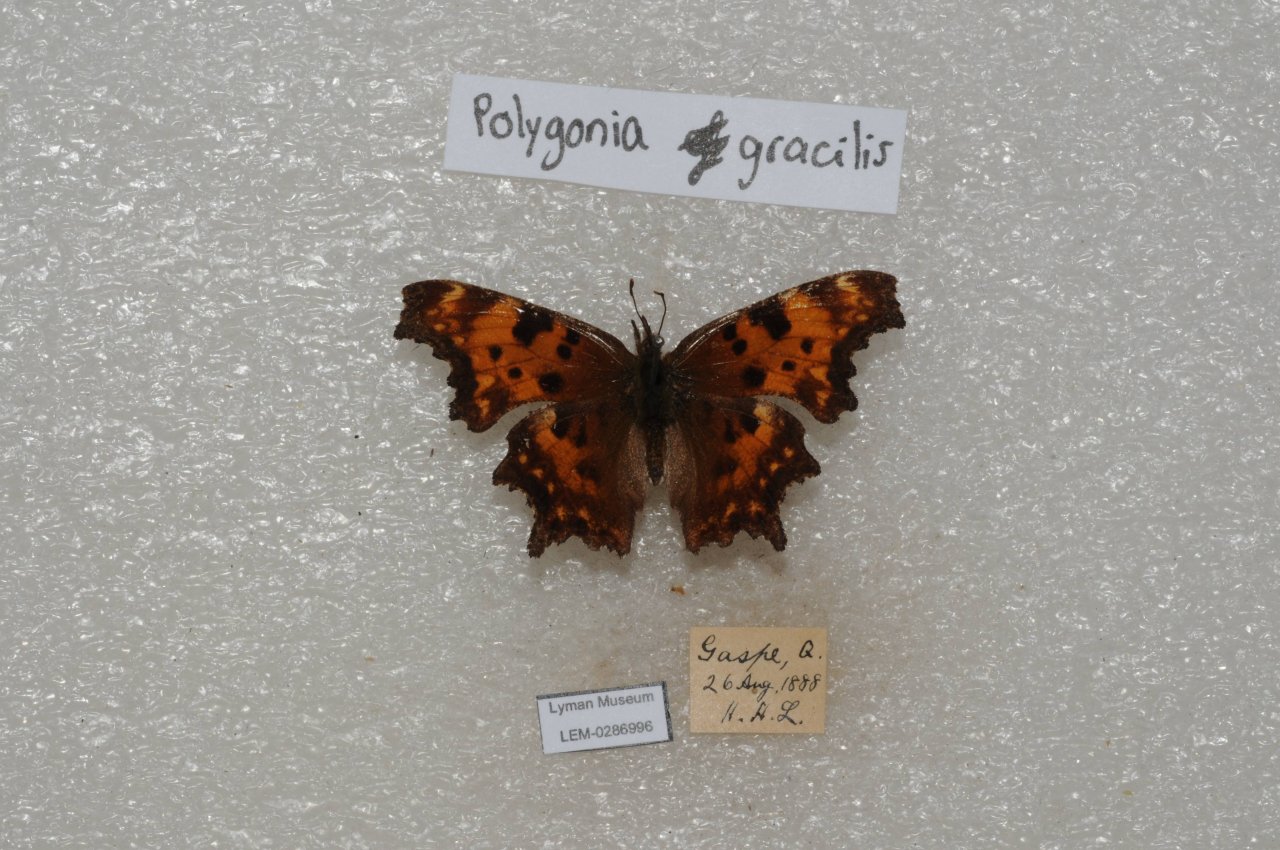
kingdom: Animalia
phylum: Arthropoda
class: Insecta
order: Lepidoptera
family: Nymphalidae
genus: Polygonia
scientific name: Polygonia gracilis
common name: Hoary Comma
